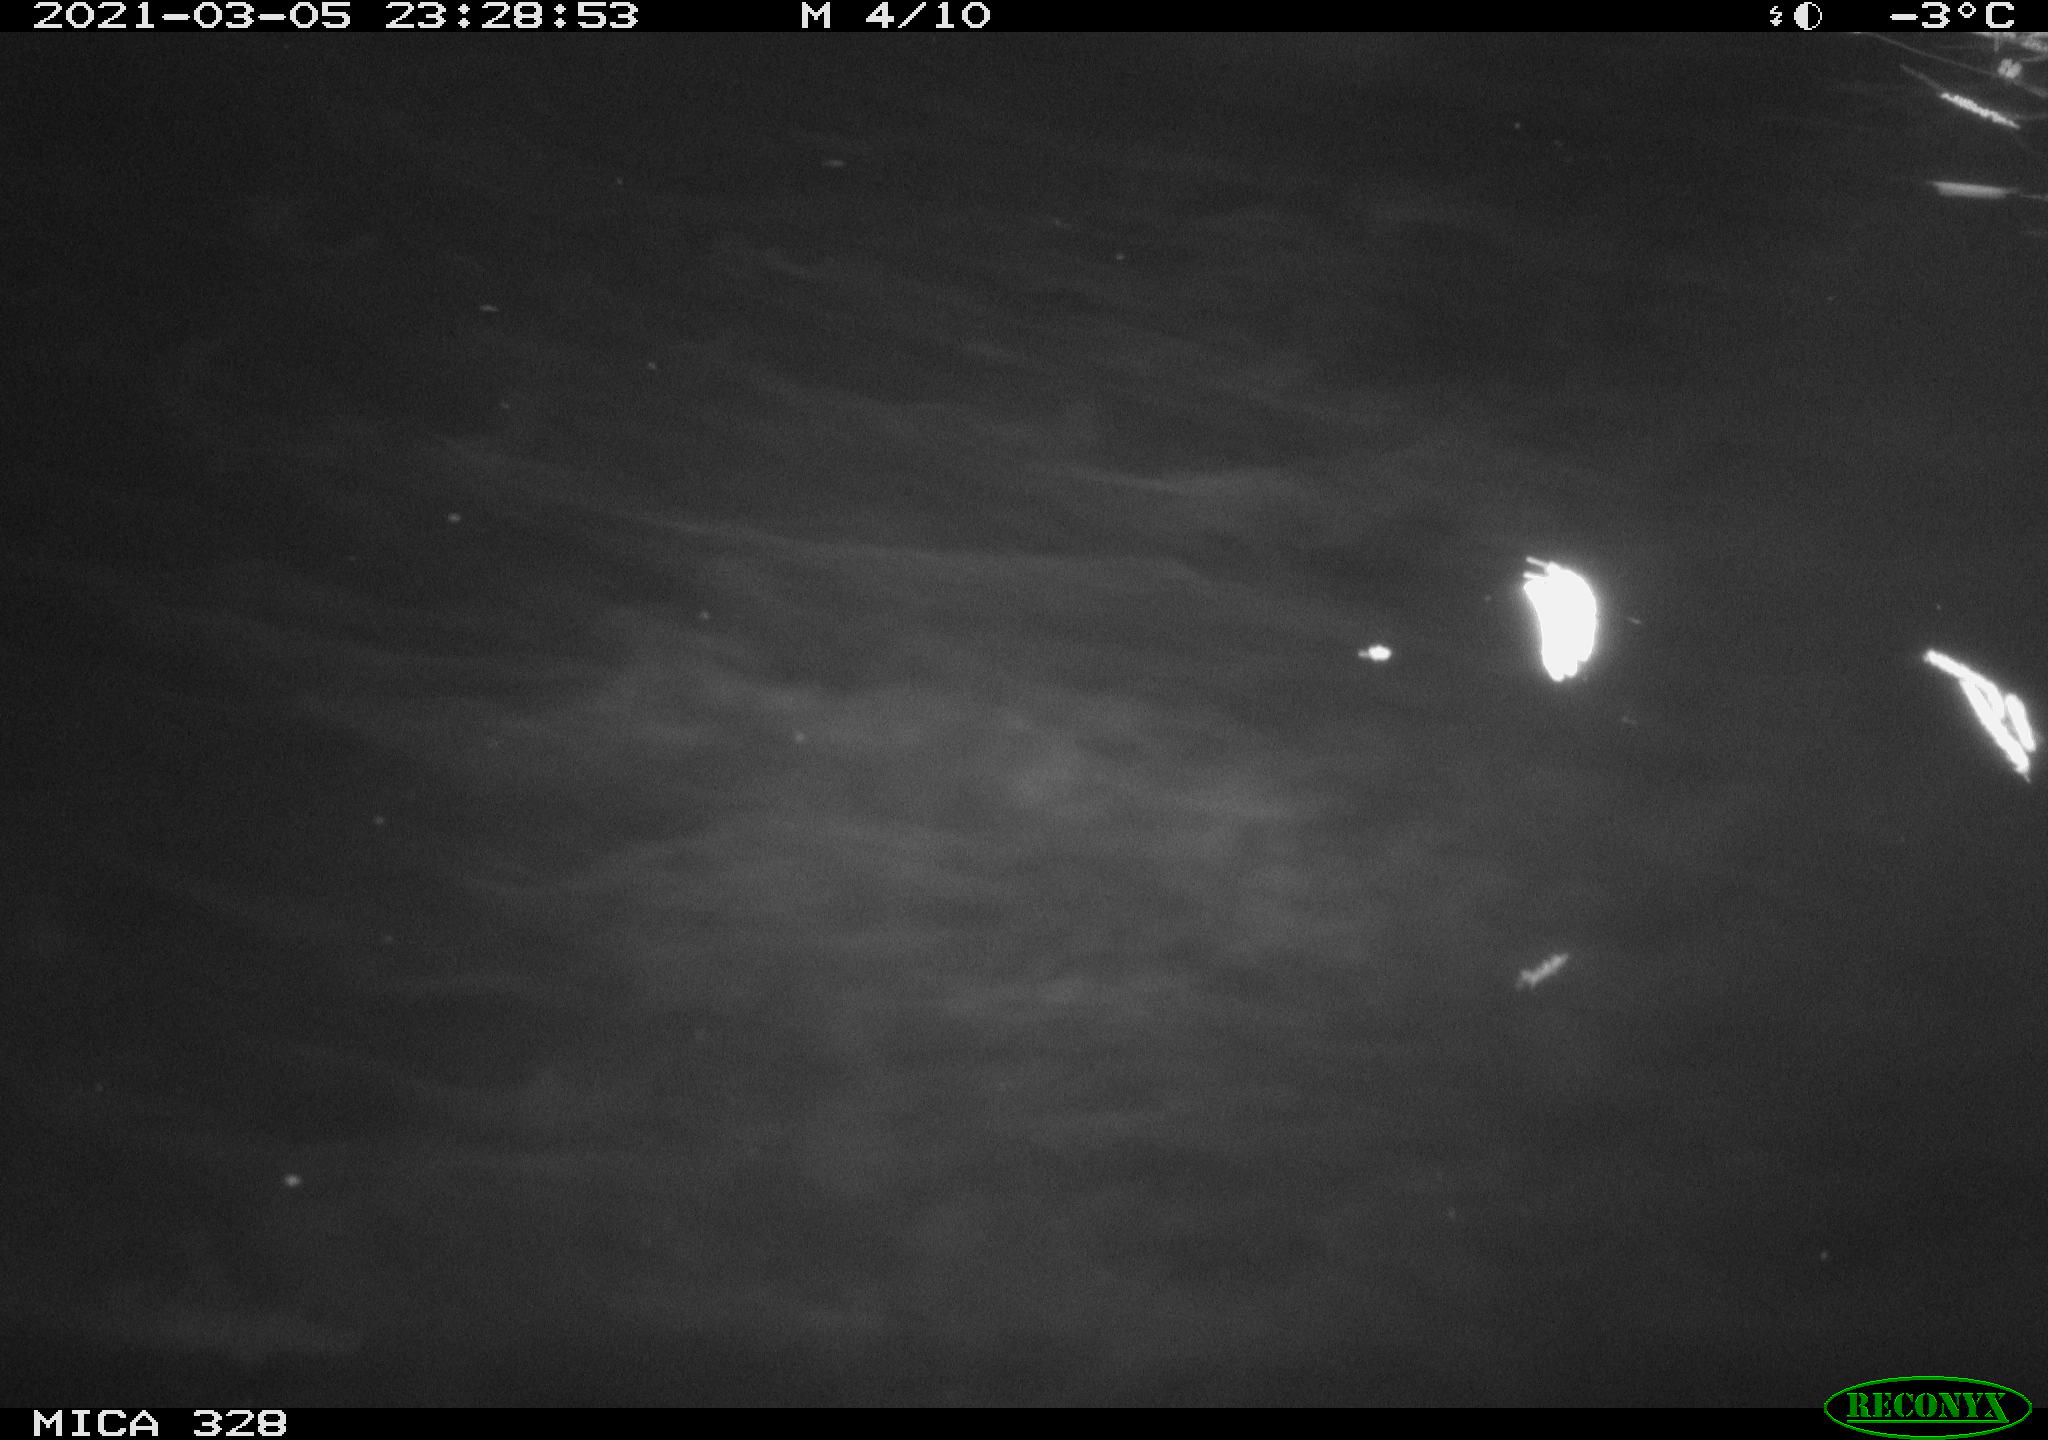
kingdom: Animalia
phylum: Chordata
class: Mammalia
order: Rodentia
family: Cricetidae
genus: Ondatra
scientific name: Ondatra zibethicus
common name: Muskrat
